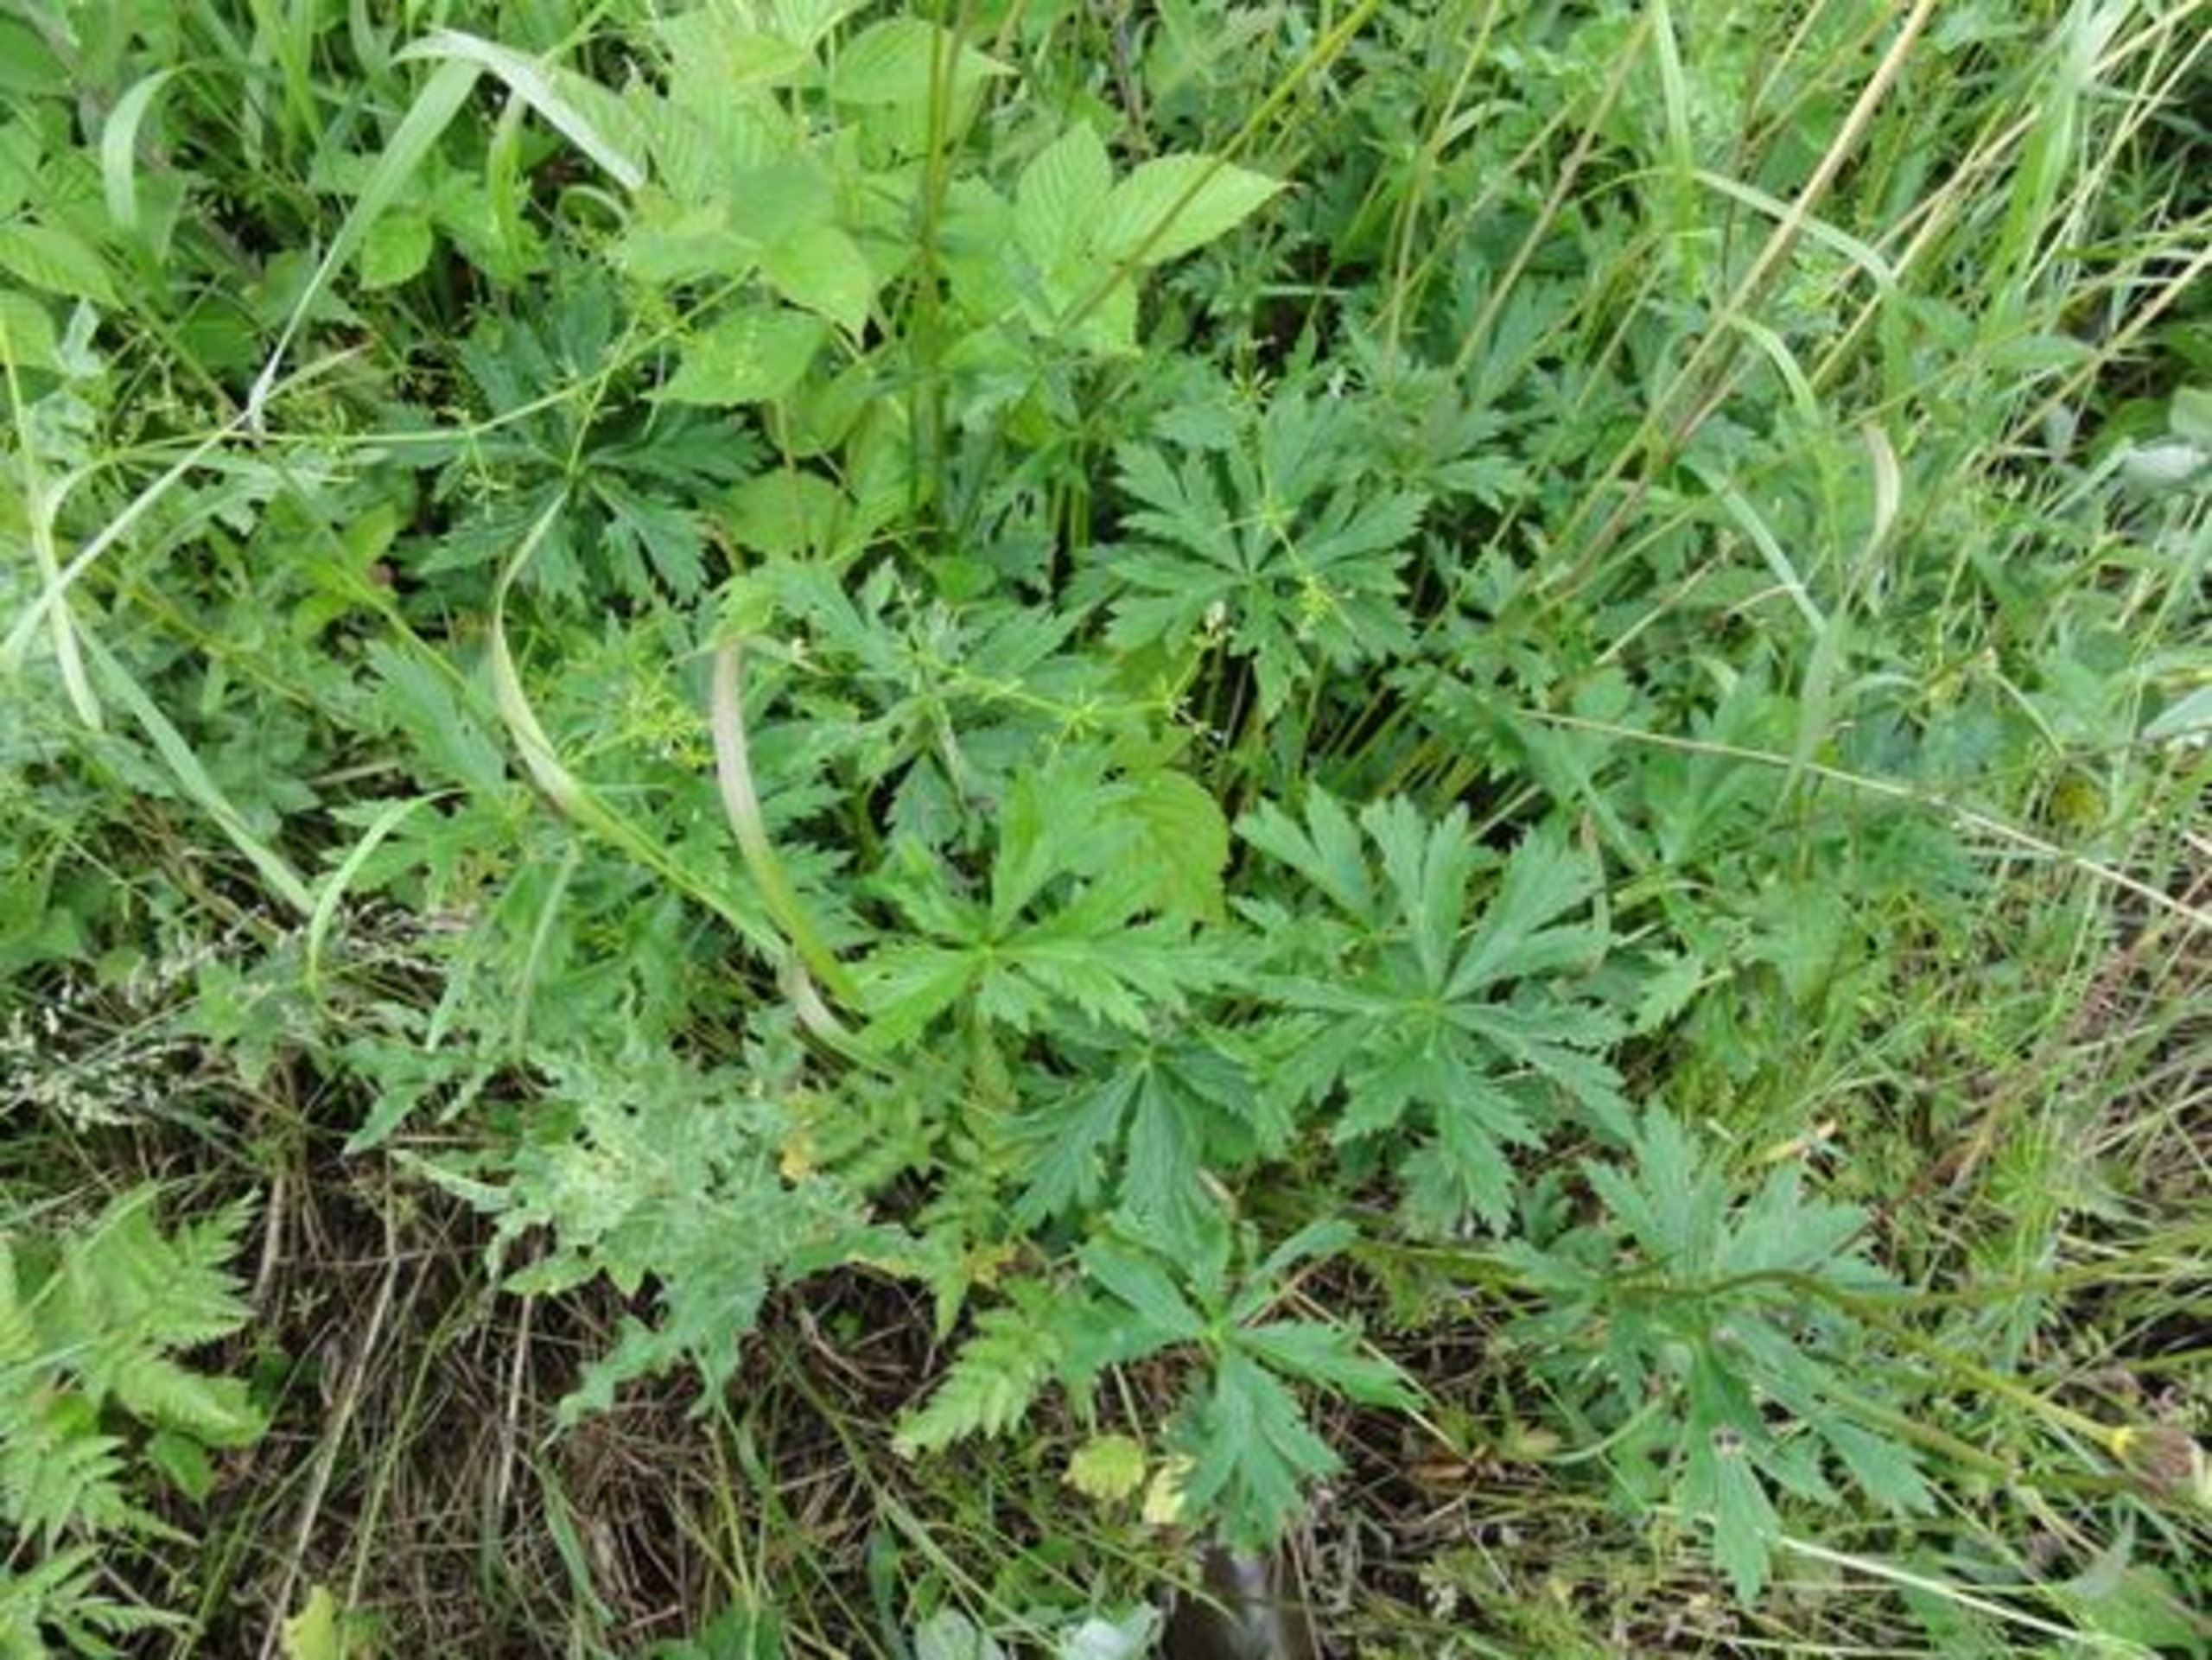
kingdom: Plantae
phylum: Tracheophyta
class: Magnoliopsida
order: Ranunculales
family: Ranunculaceae
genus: Trollius
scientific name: Trollius europaeus
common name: Engblomme
